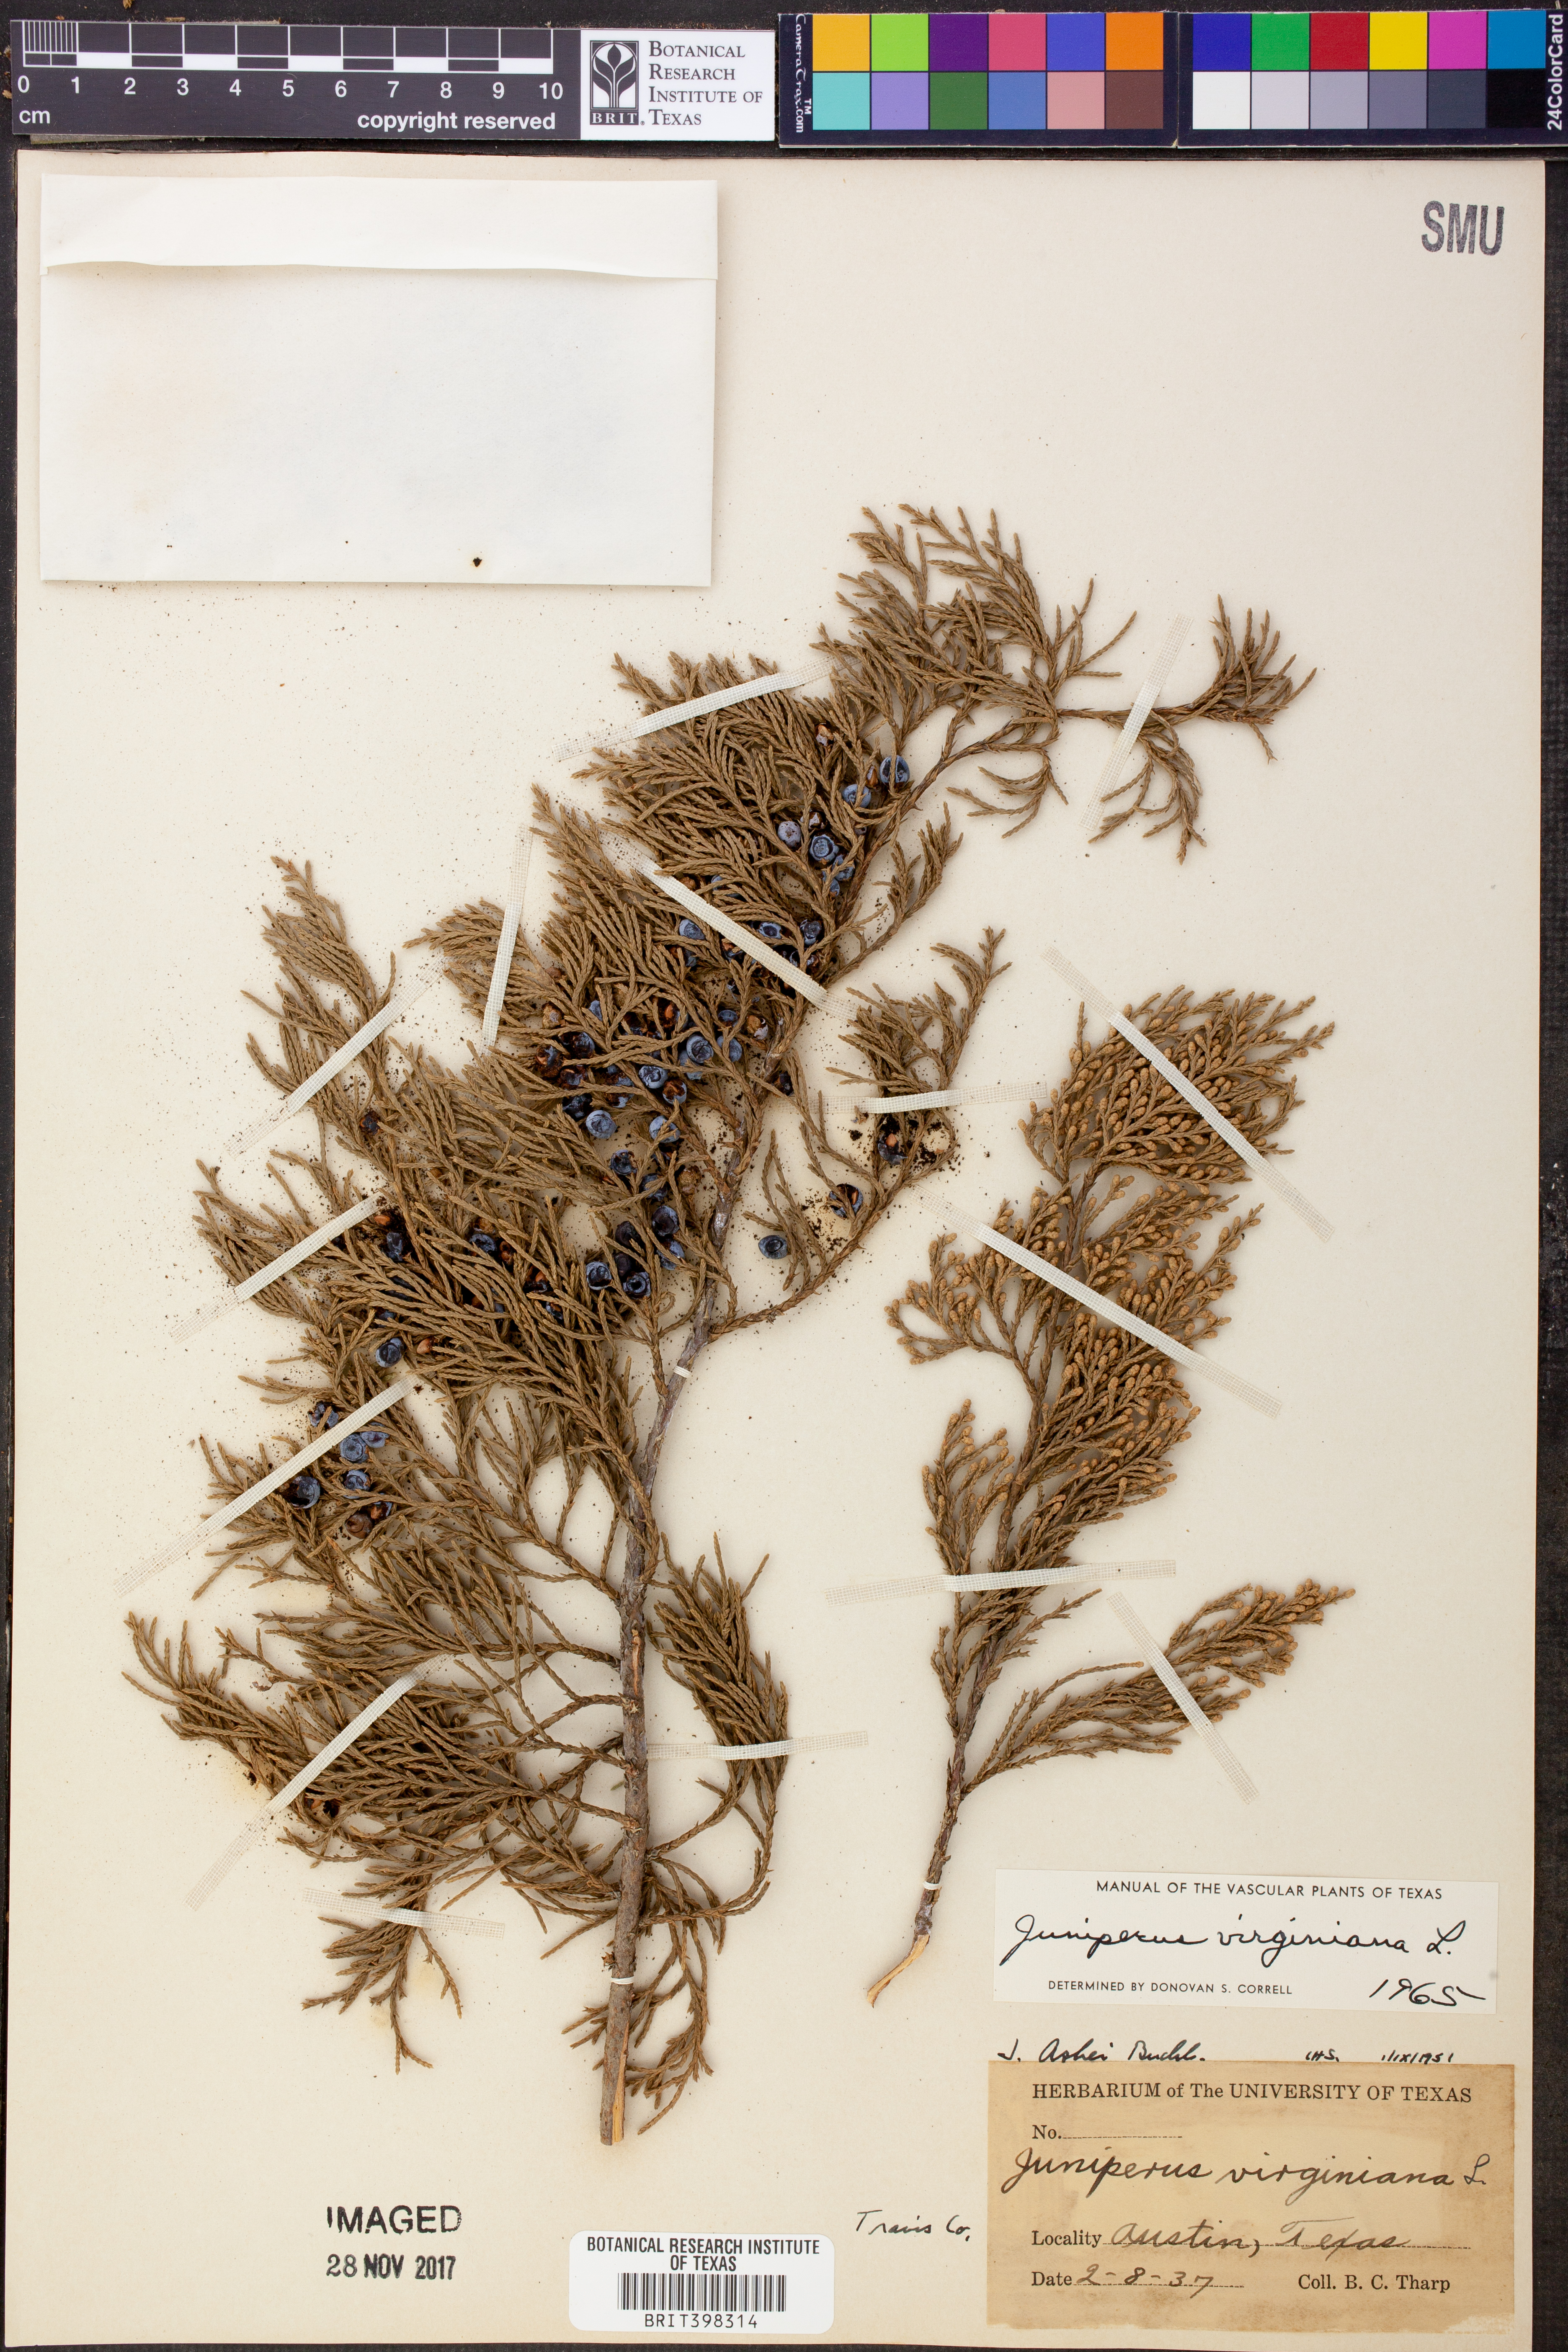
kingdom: Plantae
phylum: Tracheophyta
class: Pinopsida
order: Pinales
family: Cupressaceae
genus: Juniperus
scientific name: Juniperus virginiana
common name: Red juniper
